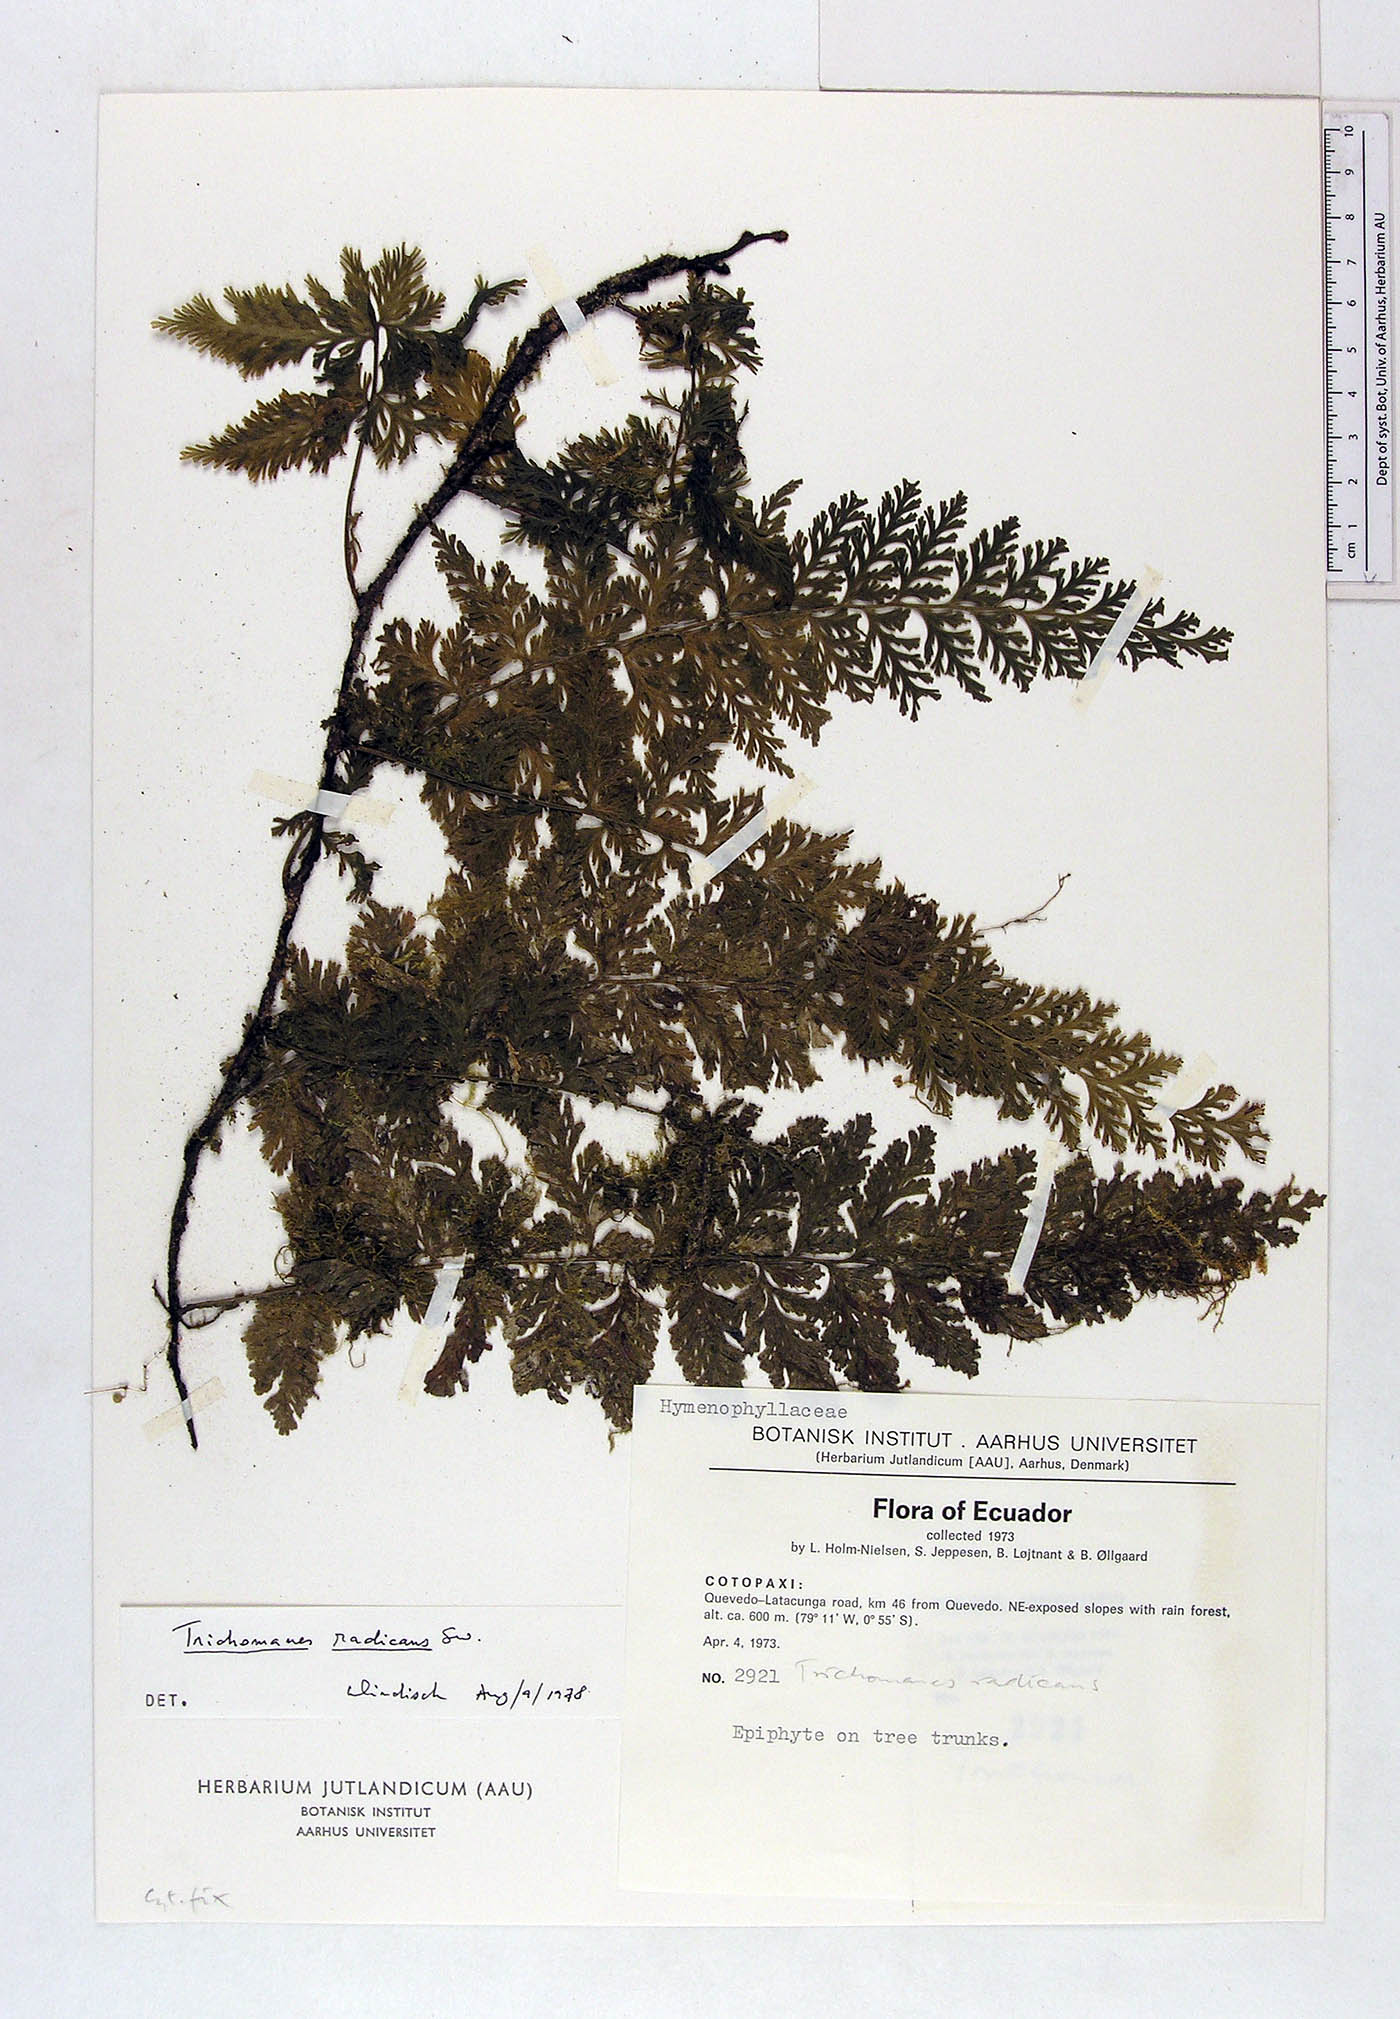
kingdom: Plantae
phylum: Tracheophyta
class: Polypodiopsida
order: Hymenophyllales
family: Hymenophyllaceae
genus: Vandenboschia
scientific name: Vandenboschia radicans
